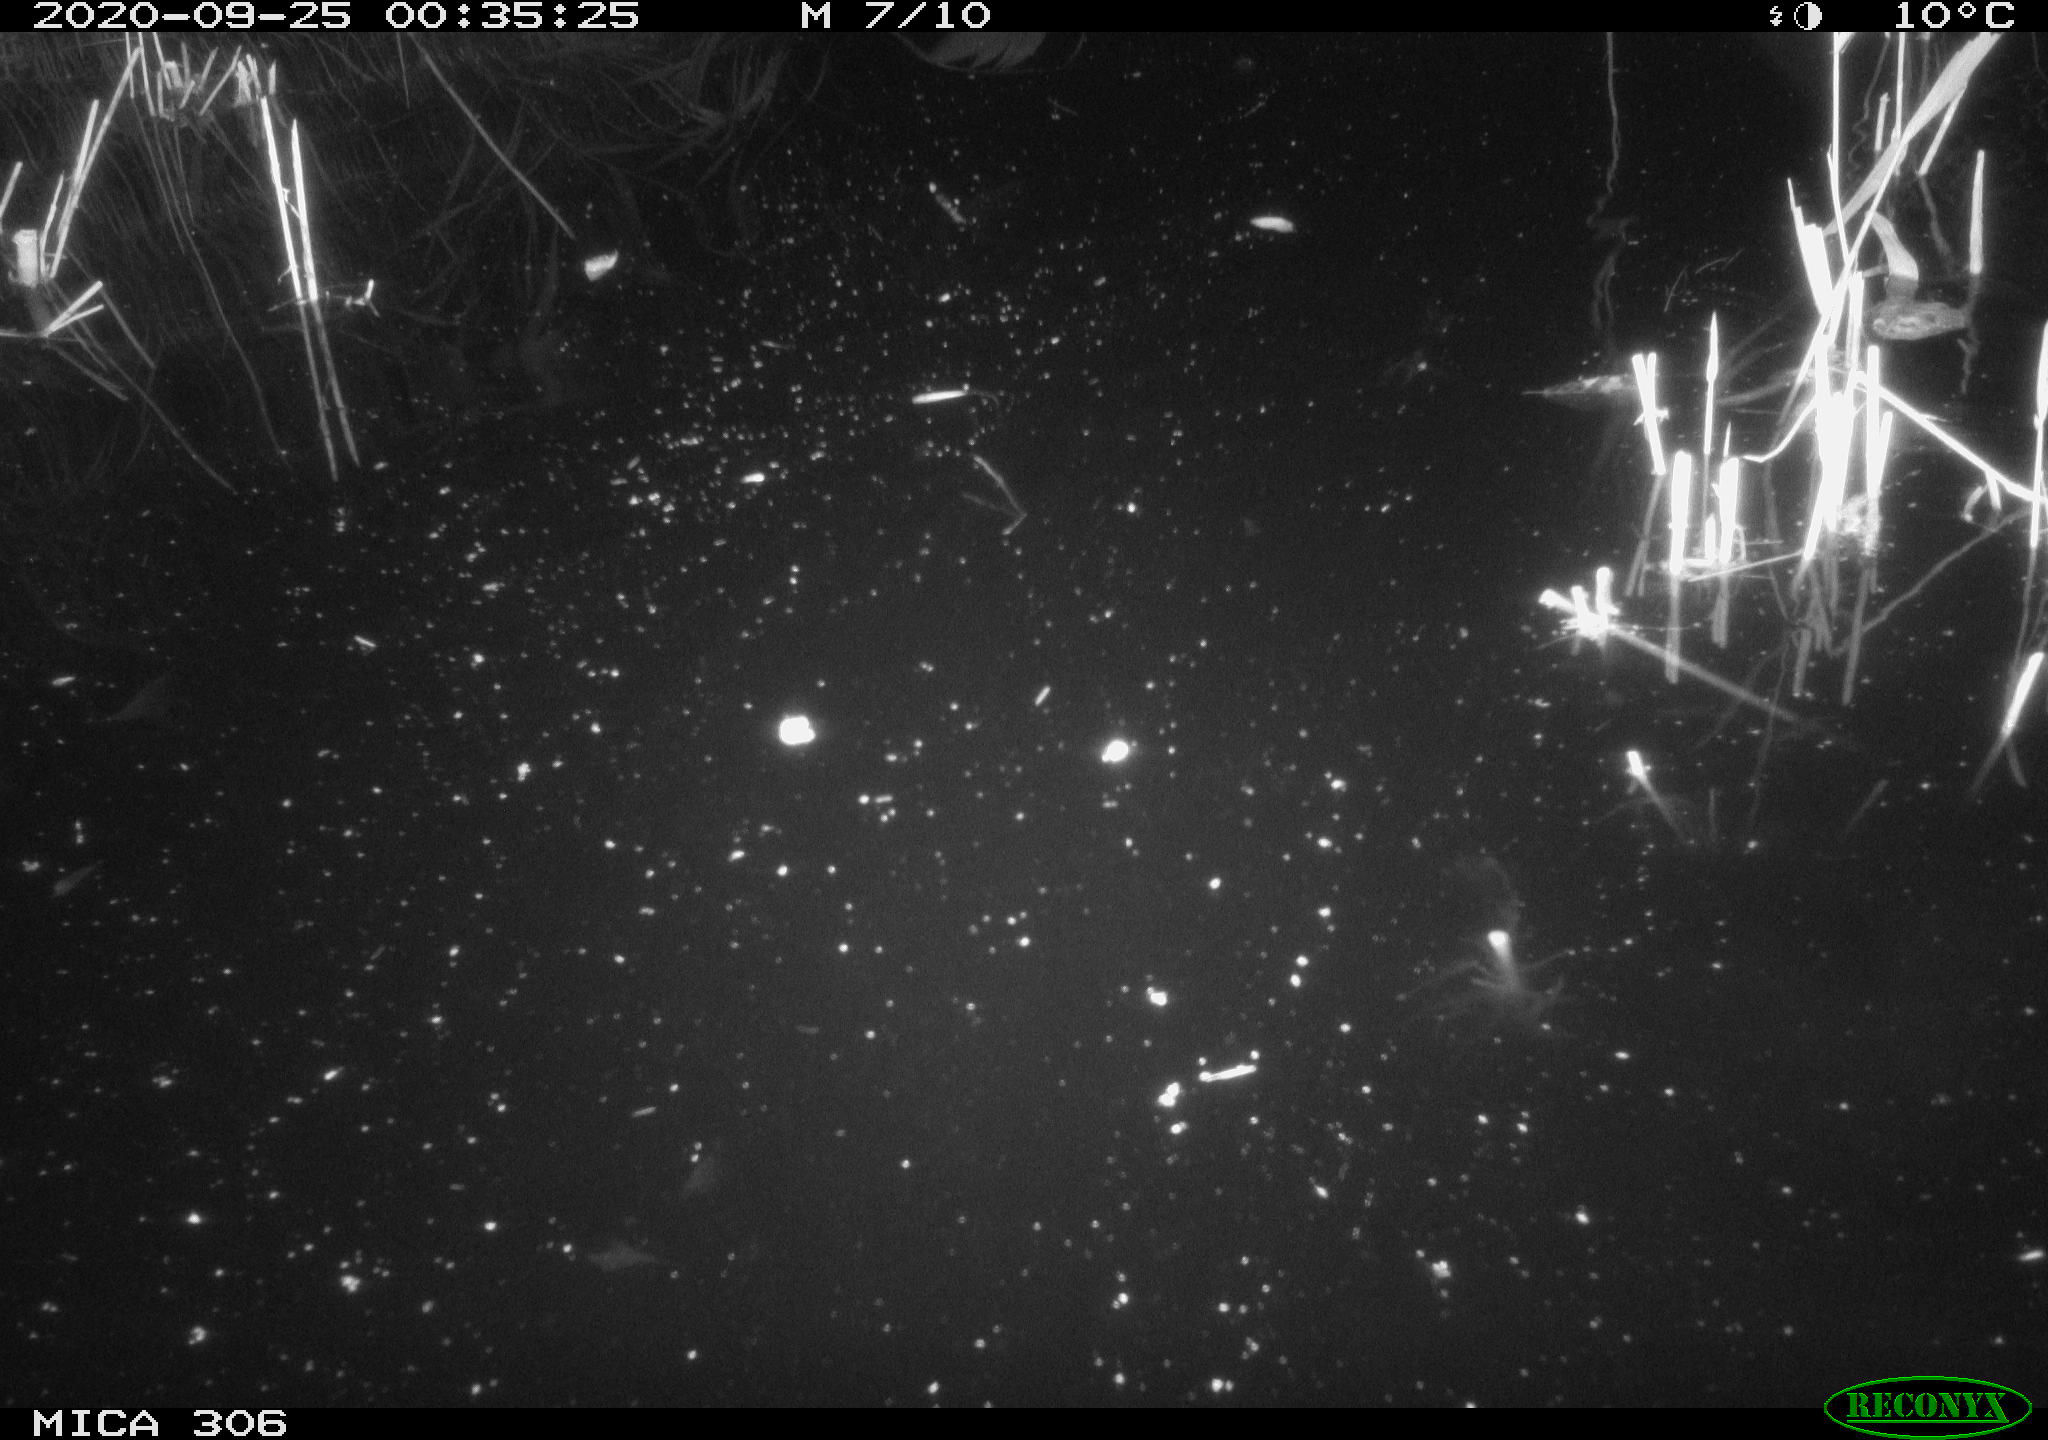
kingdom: Animalia
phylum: Chordata
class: Mammalia
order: Rodentia
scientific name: Rodentia
